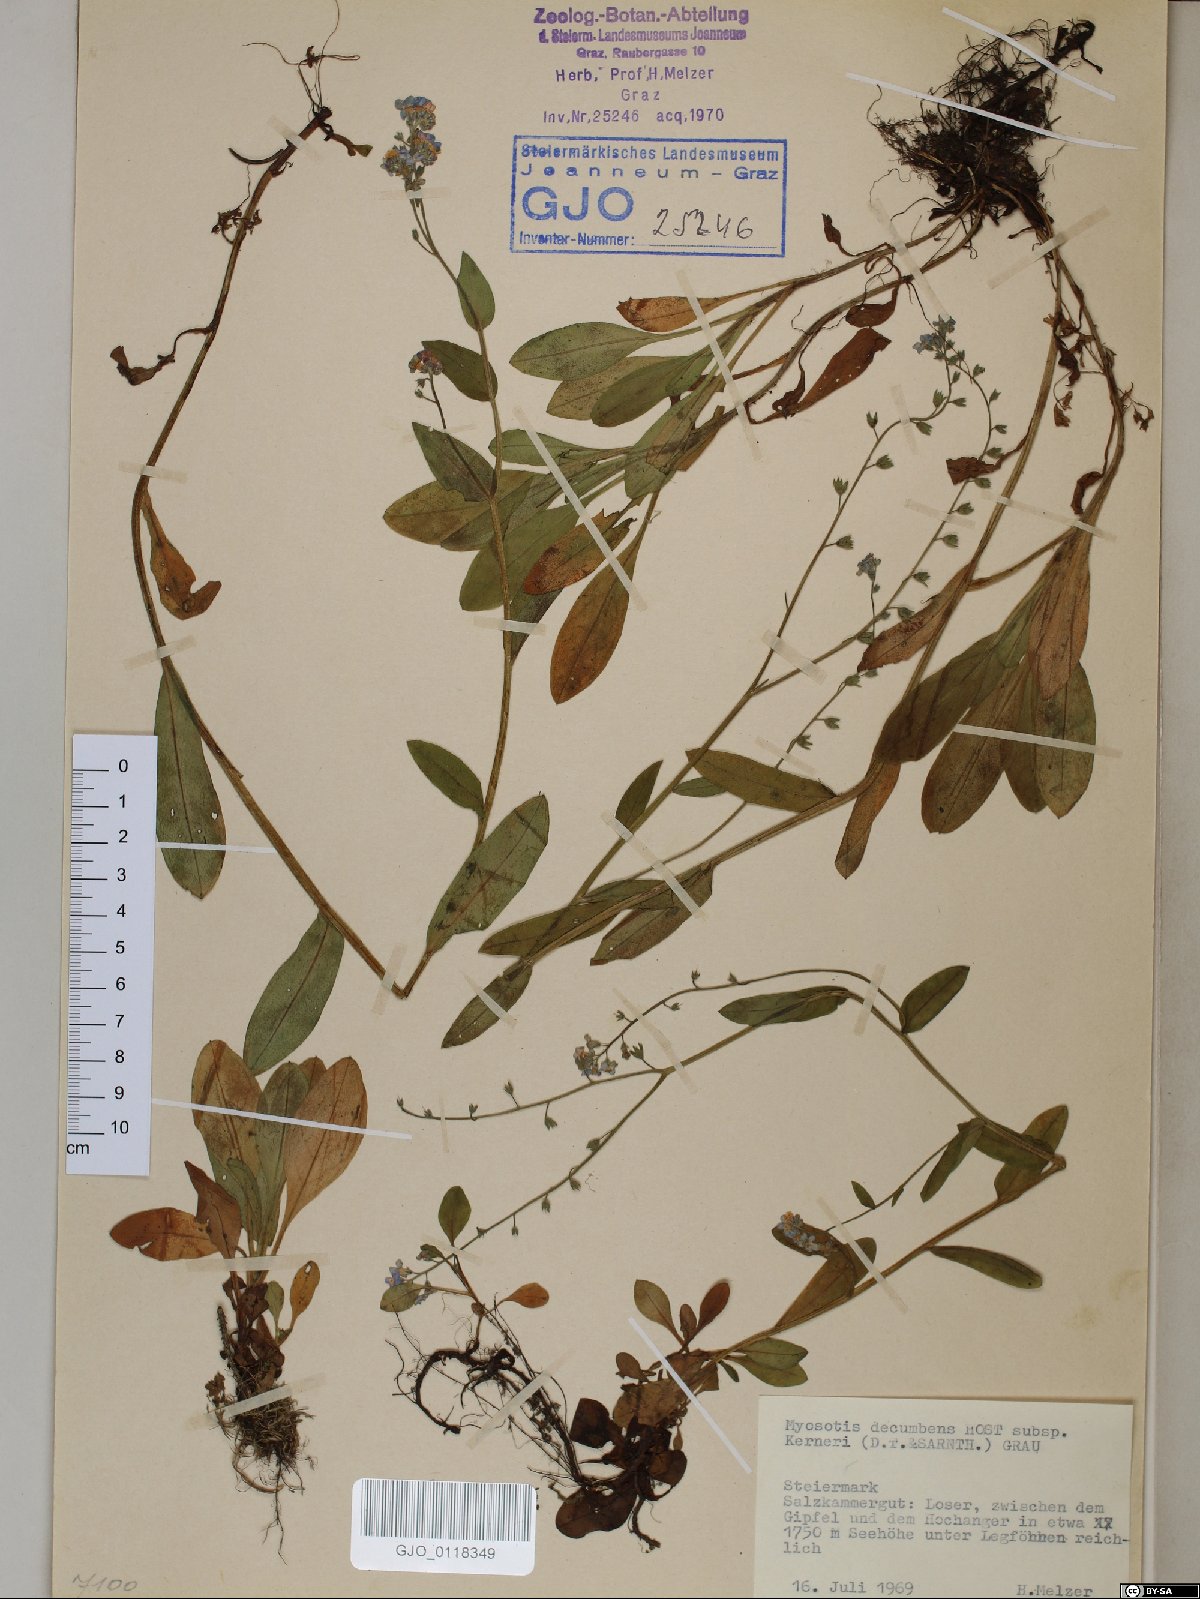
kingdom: Plantae
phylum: Tracheophyta
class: Magnoliopsida
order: Boraginales
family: Boraginaceae
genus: Myosotis
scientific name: Myosotis decumbens
